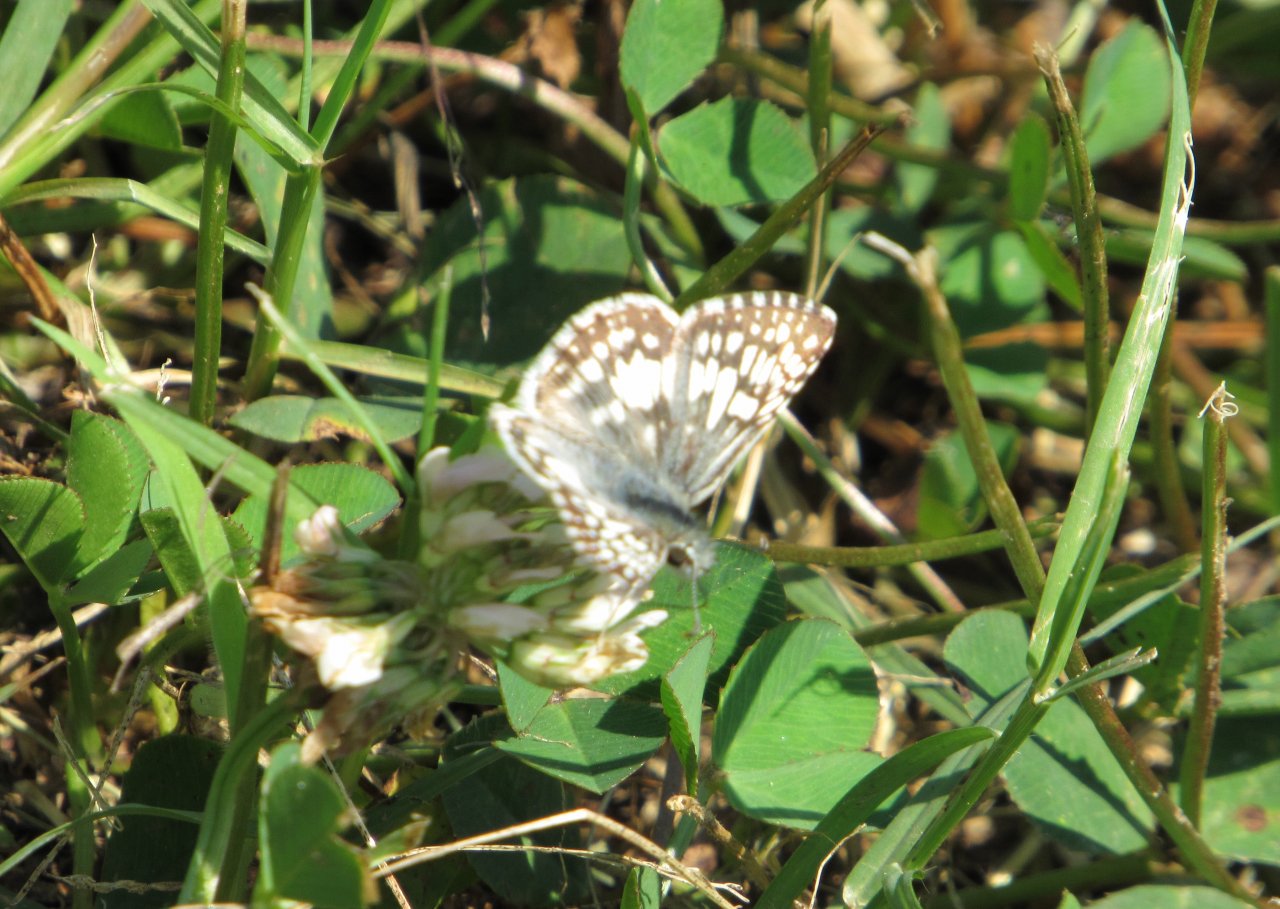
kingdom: Animalia
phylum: Arthropoda
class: Insecta
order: Lepidoptera
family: Hesperiidae
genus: Pyrgus
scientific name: Pyrgus
